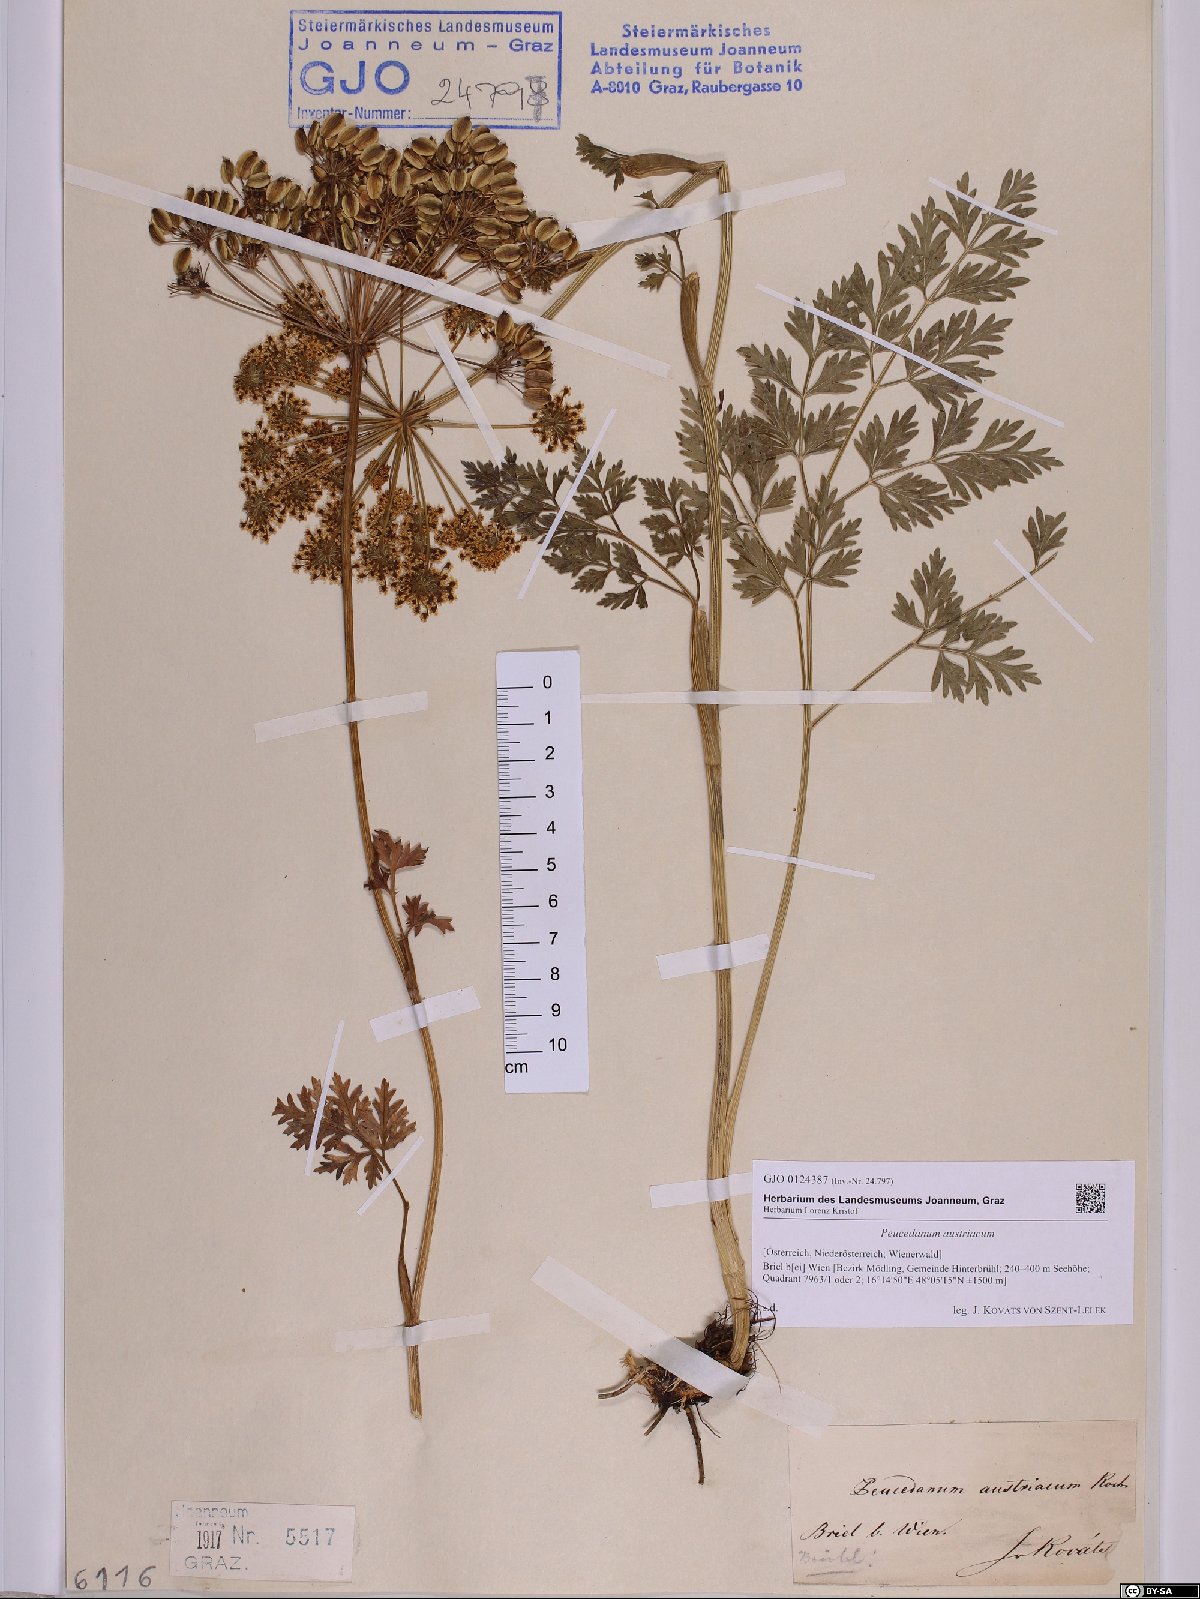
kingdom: Plantae
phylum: Tracheophyta
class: Magnoliopsida
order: Apiales
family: Apiaceae
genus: Peucedanum
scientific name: Peucedanum austriacum
